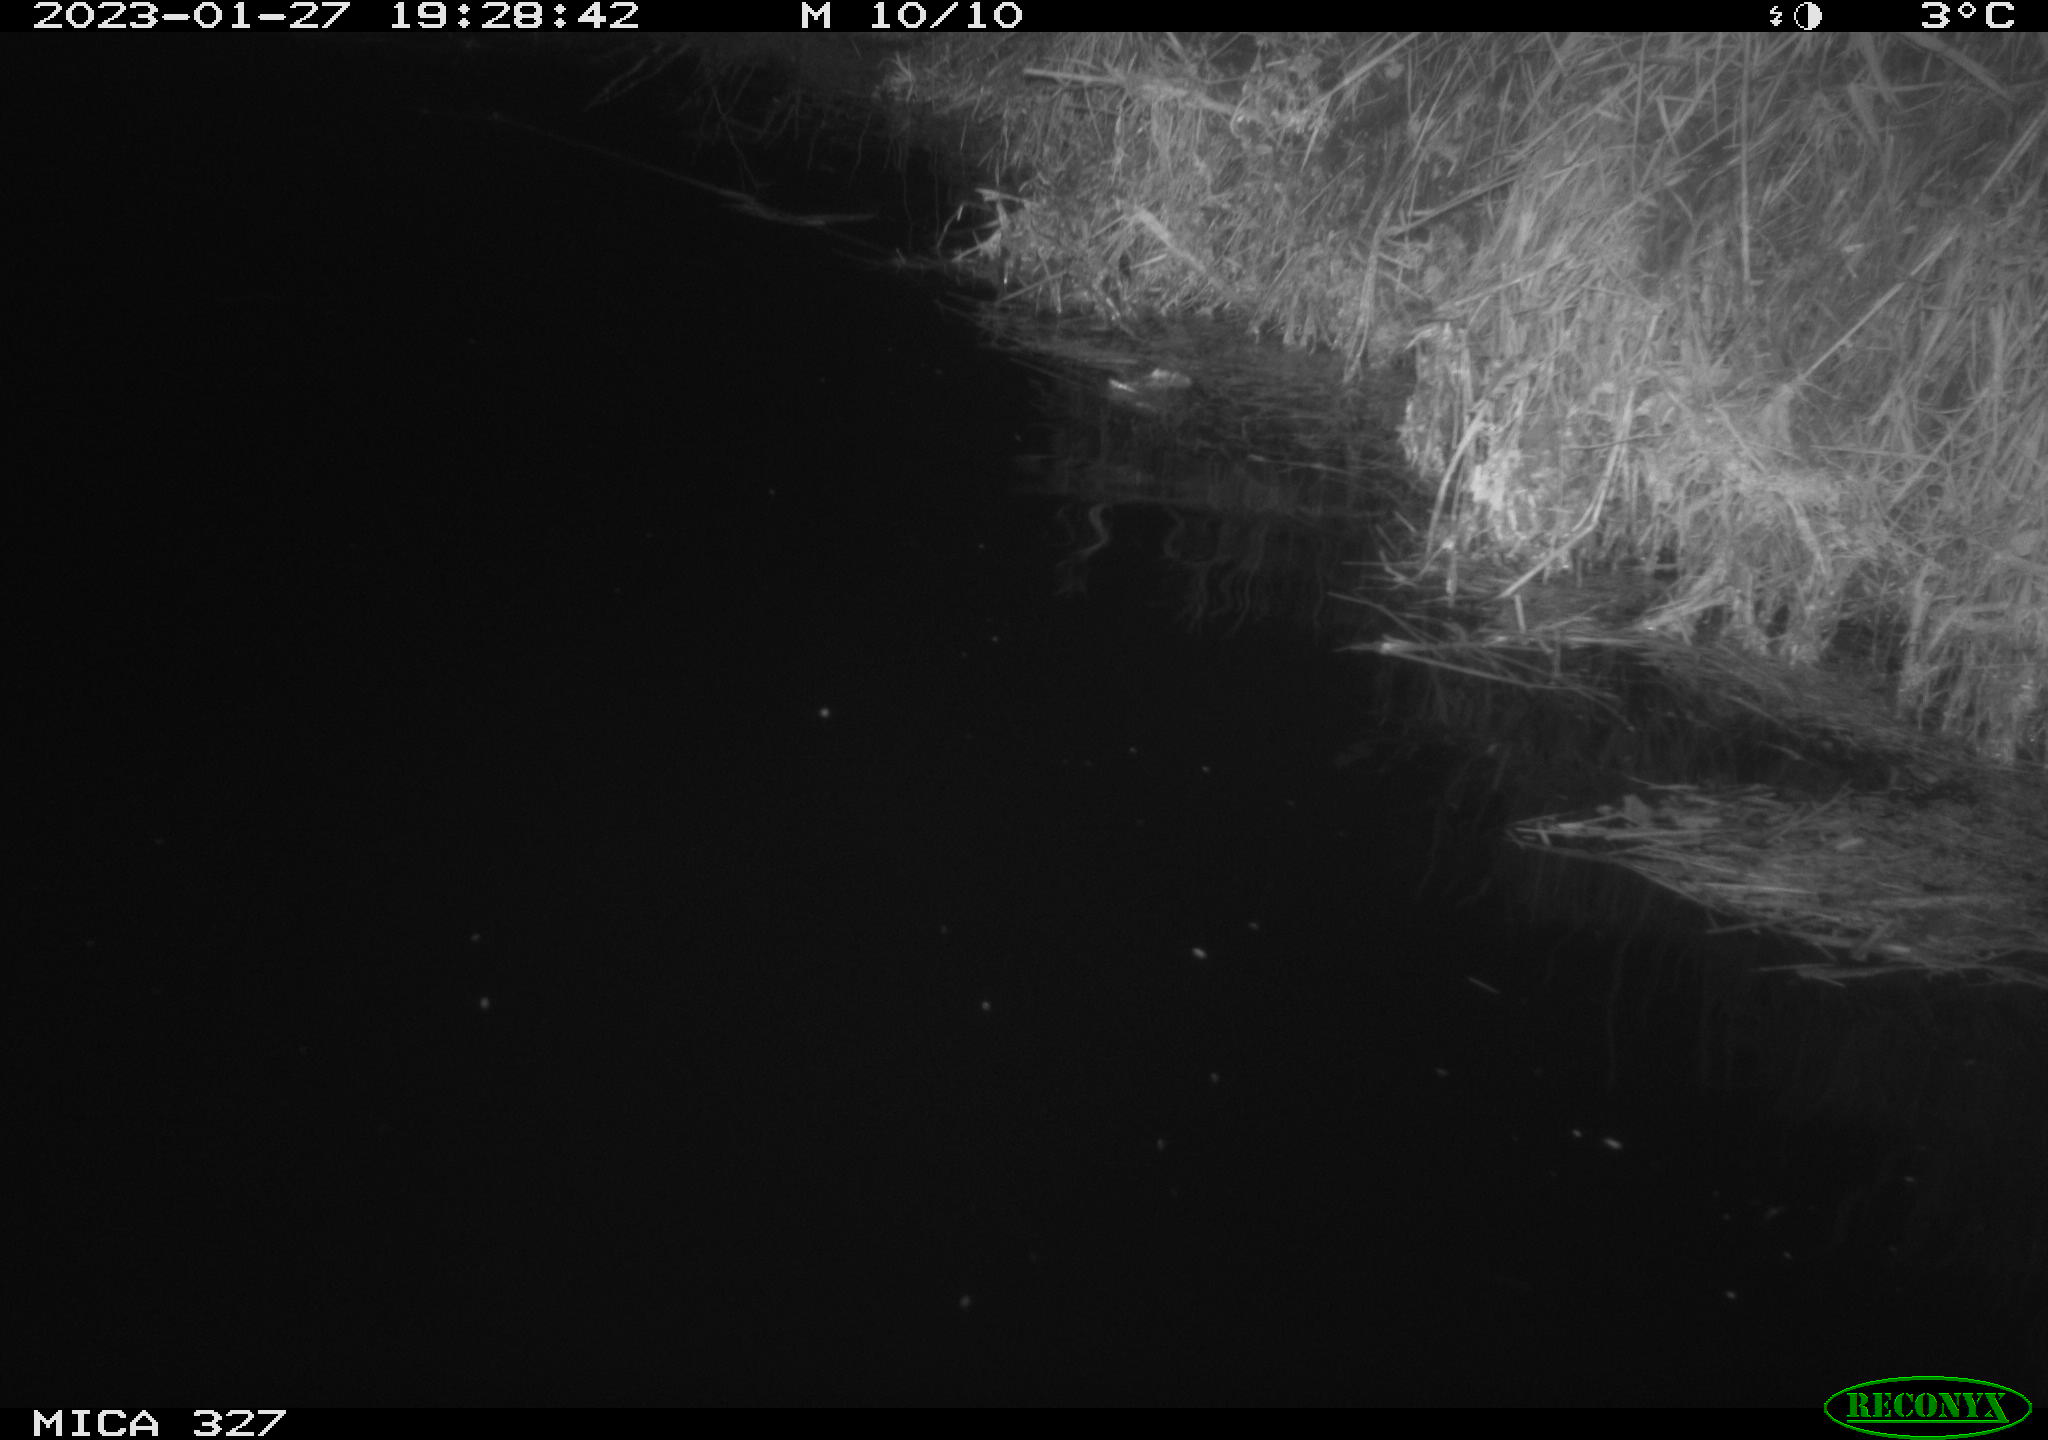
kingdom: Animalia
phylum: Chordata
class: Mammalia
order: Rodentia
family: Cricetidae
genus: Ondatra
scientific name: Ondatra zibethicus
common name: Muskrat
